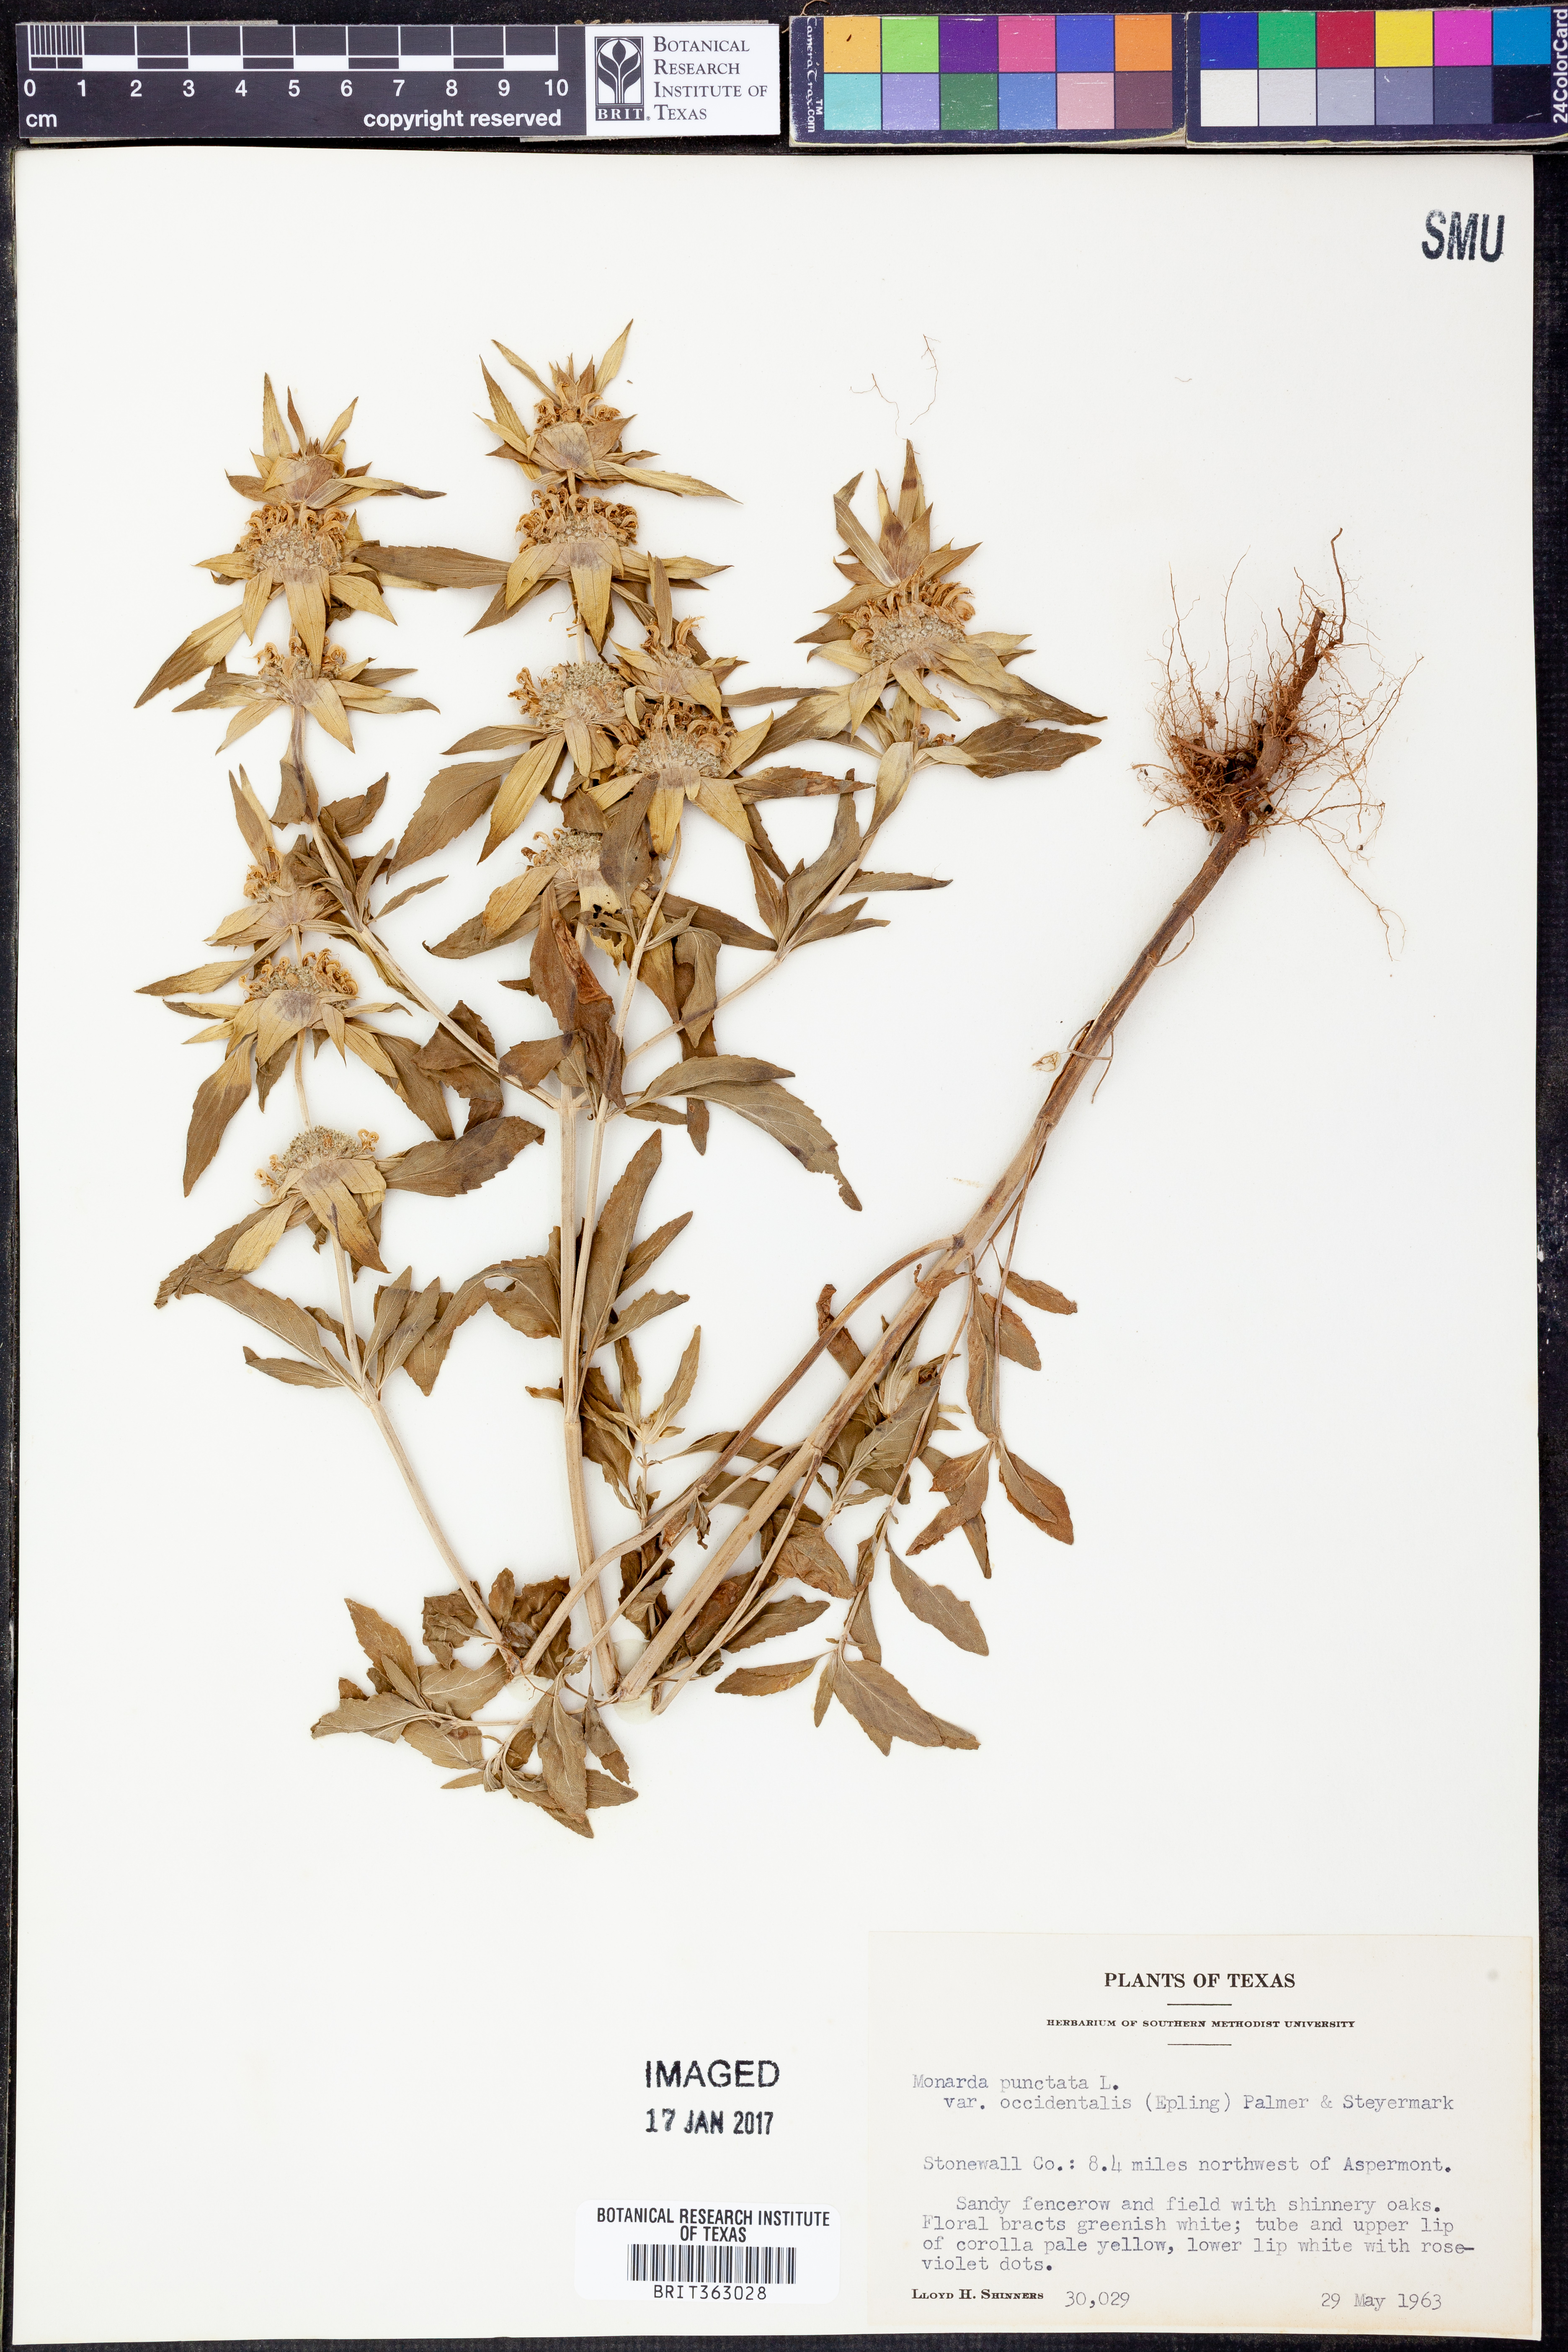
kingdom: Plantae
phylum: Tracheophyta
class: Magnoliopsida
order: Lamiales
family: Lamiaceae
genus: Monarda
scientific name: Monarda punctata
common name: Dotted monarda
